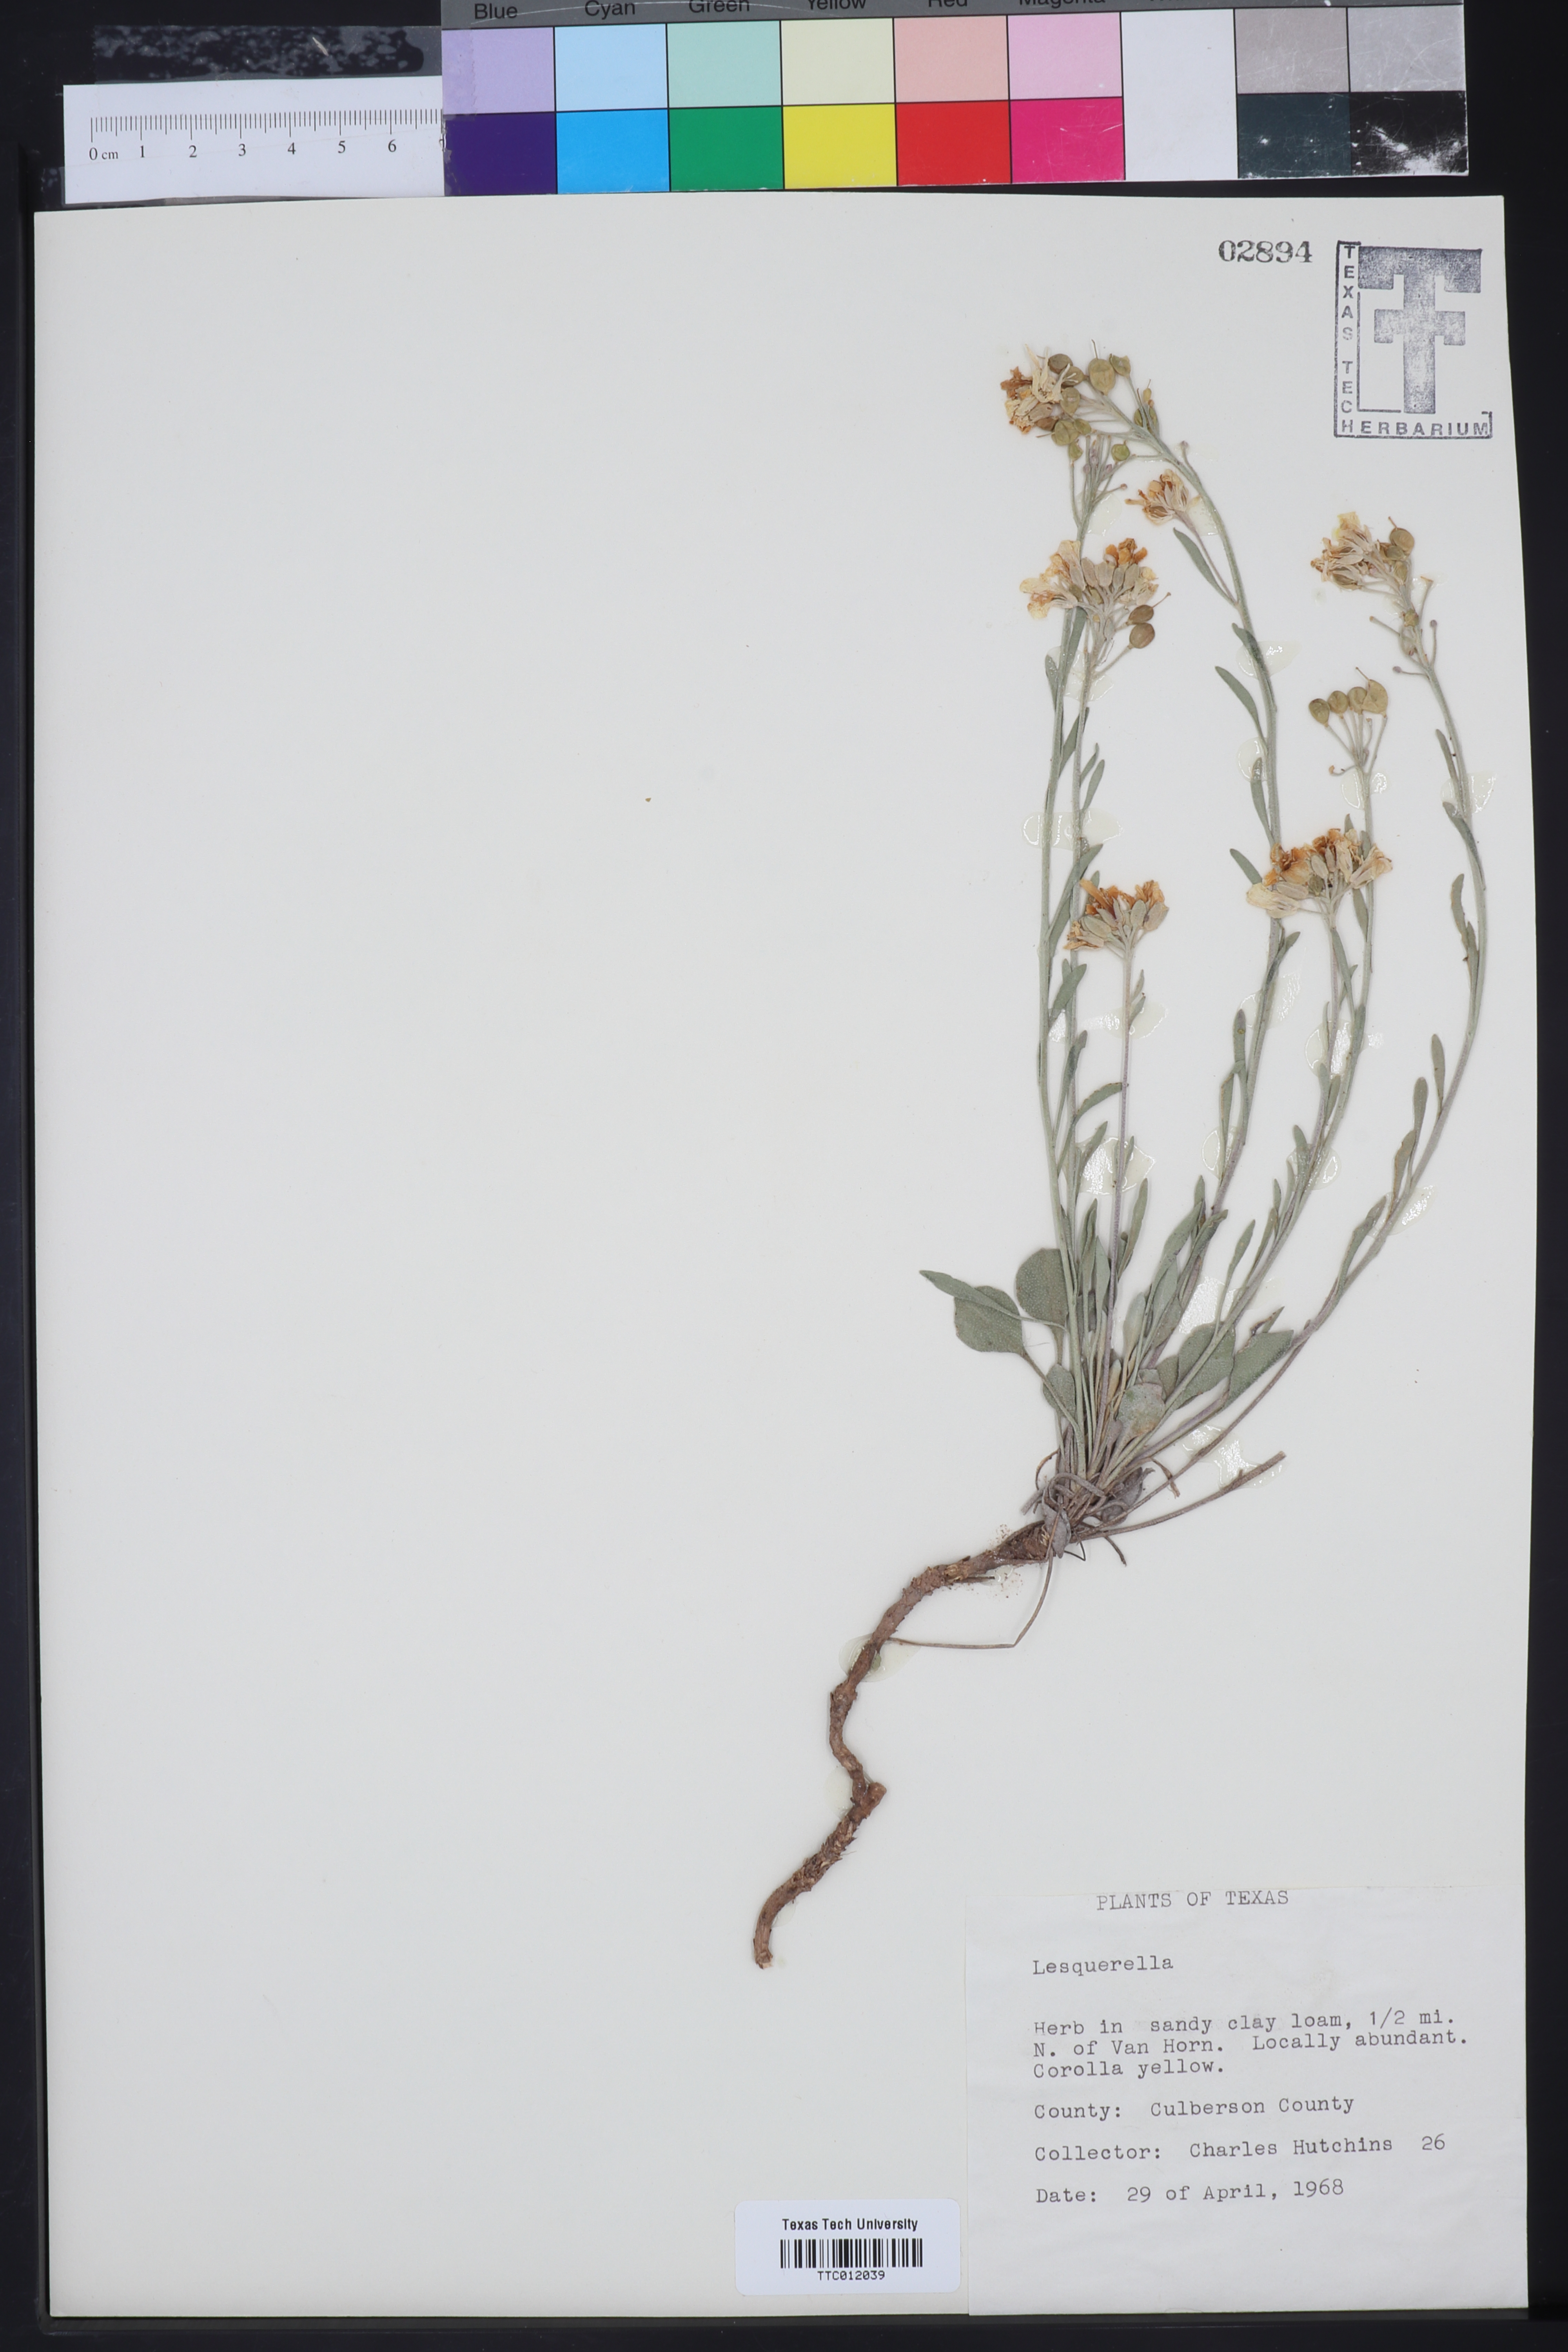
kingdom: Chromista
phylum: Cercozoa
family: Psammonobiotidae
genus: Lesquerella
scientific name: Lesquerella
